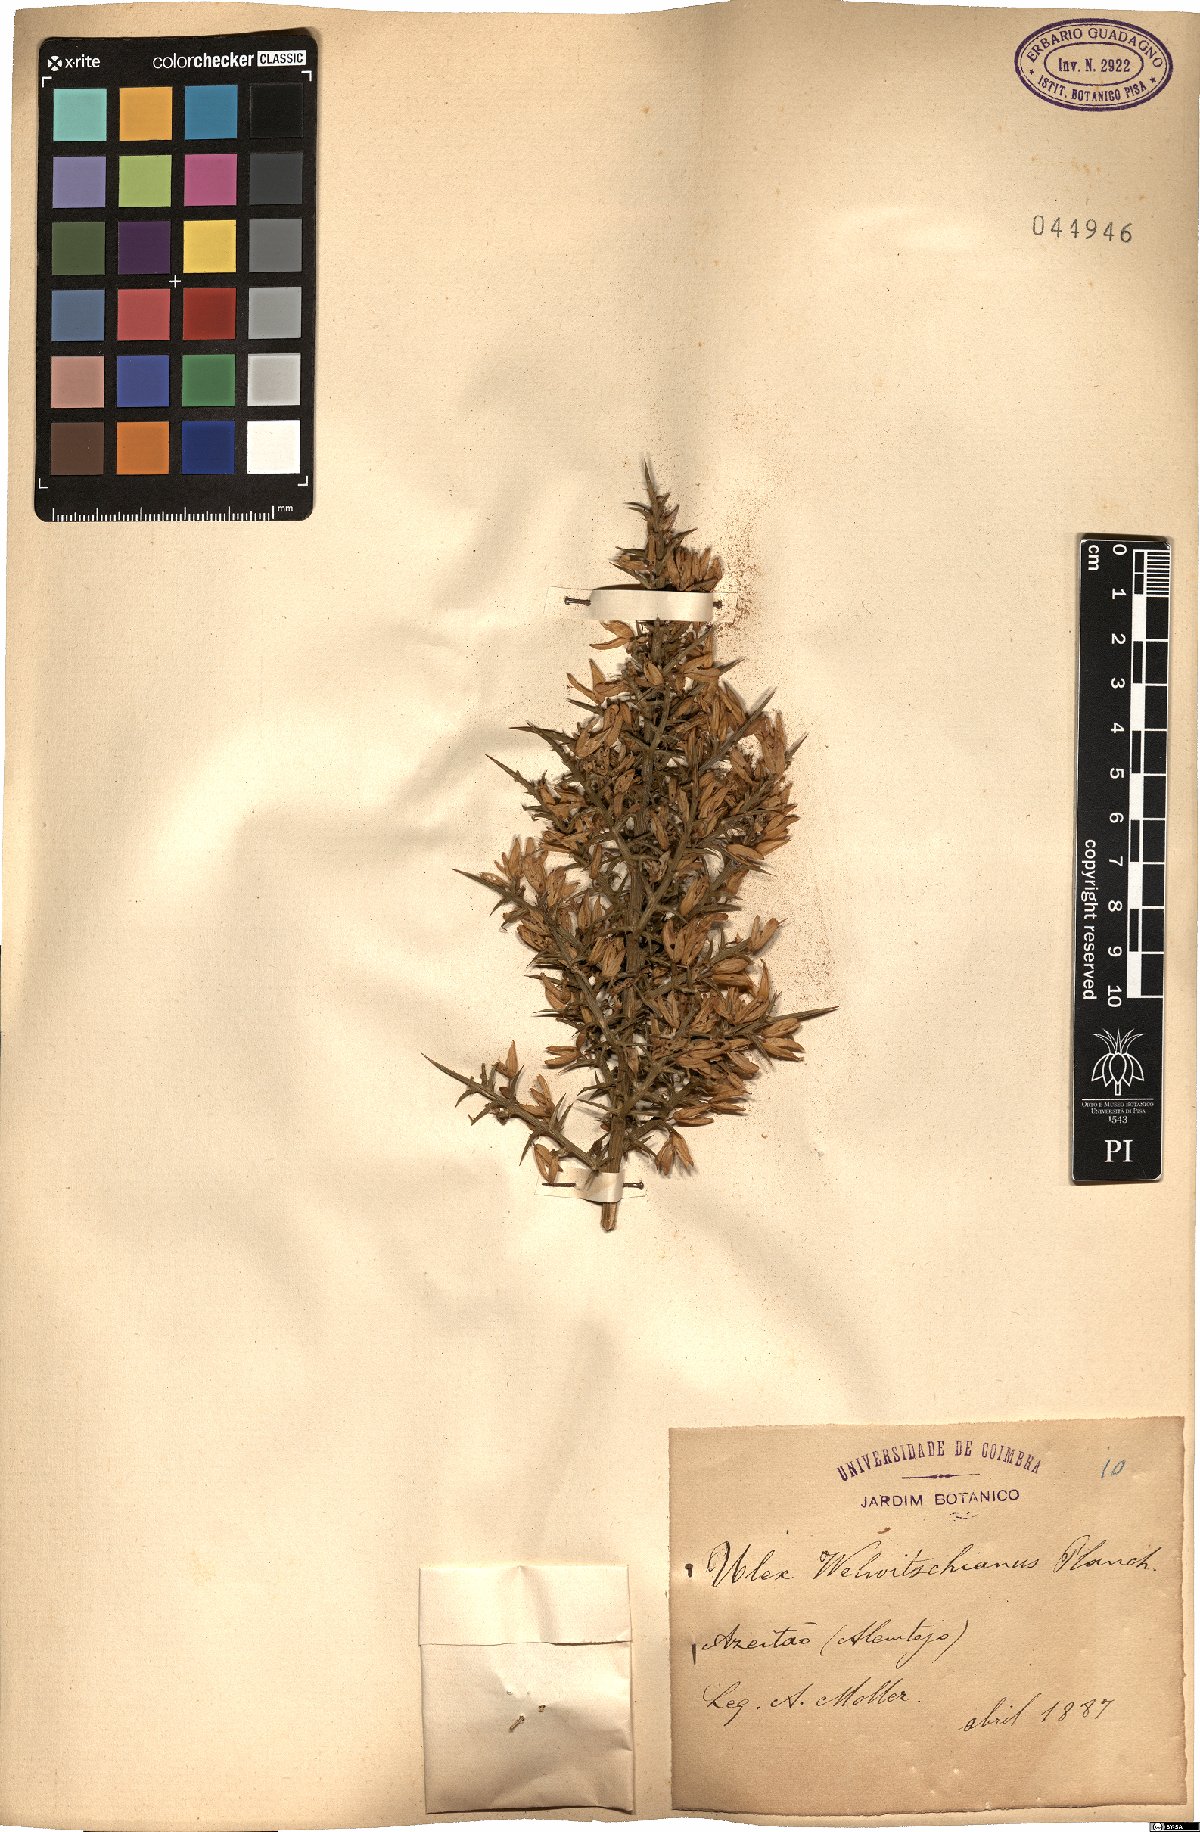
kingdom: Plantae
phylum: Tracheophyta
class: Magnoliopsida
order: Fabales
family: Fabaceae
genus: Ulex
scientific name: Ulex australis
